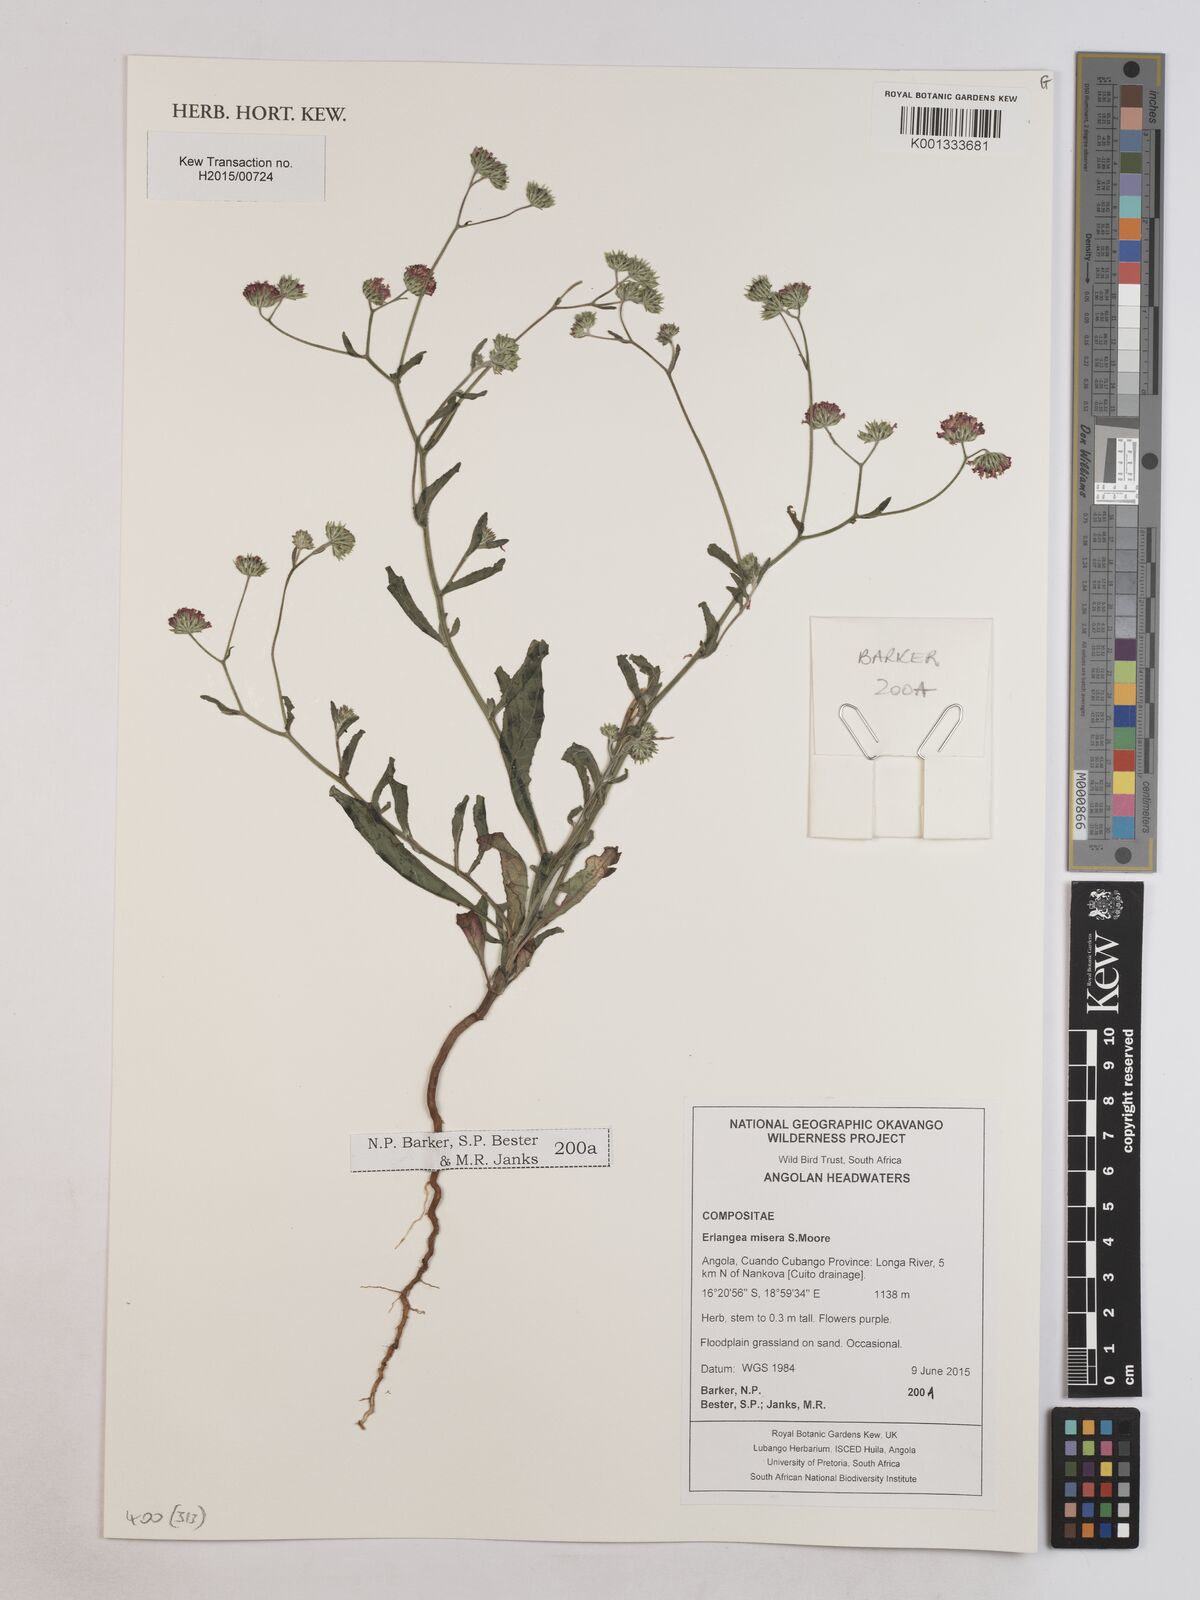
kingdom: Plantae
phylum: Tracheophyta
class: Magnoliopsida
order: Asterales
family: Asteraceae
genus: Erlangea
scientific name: Erlangea misera
